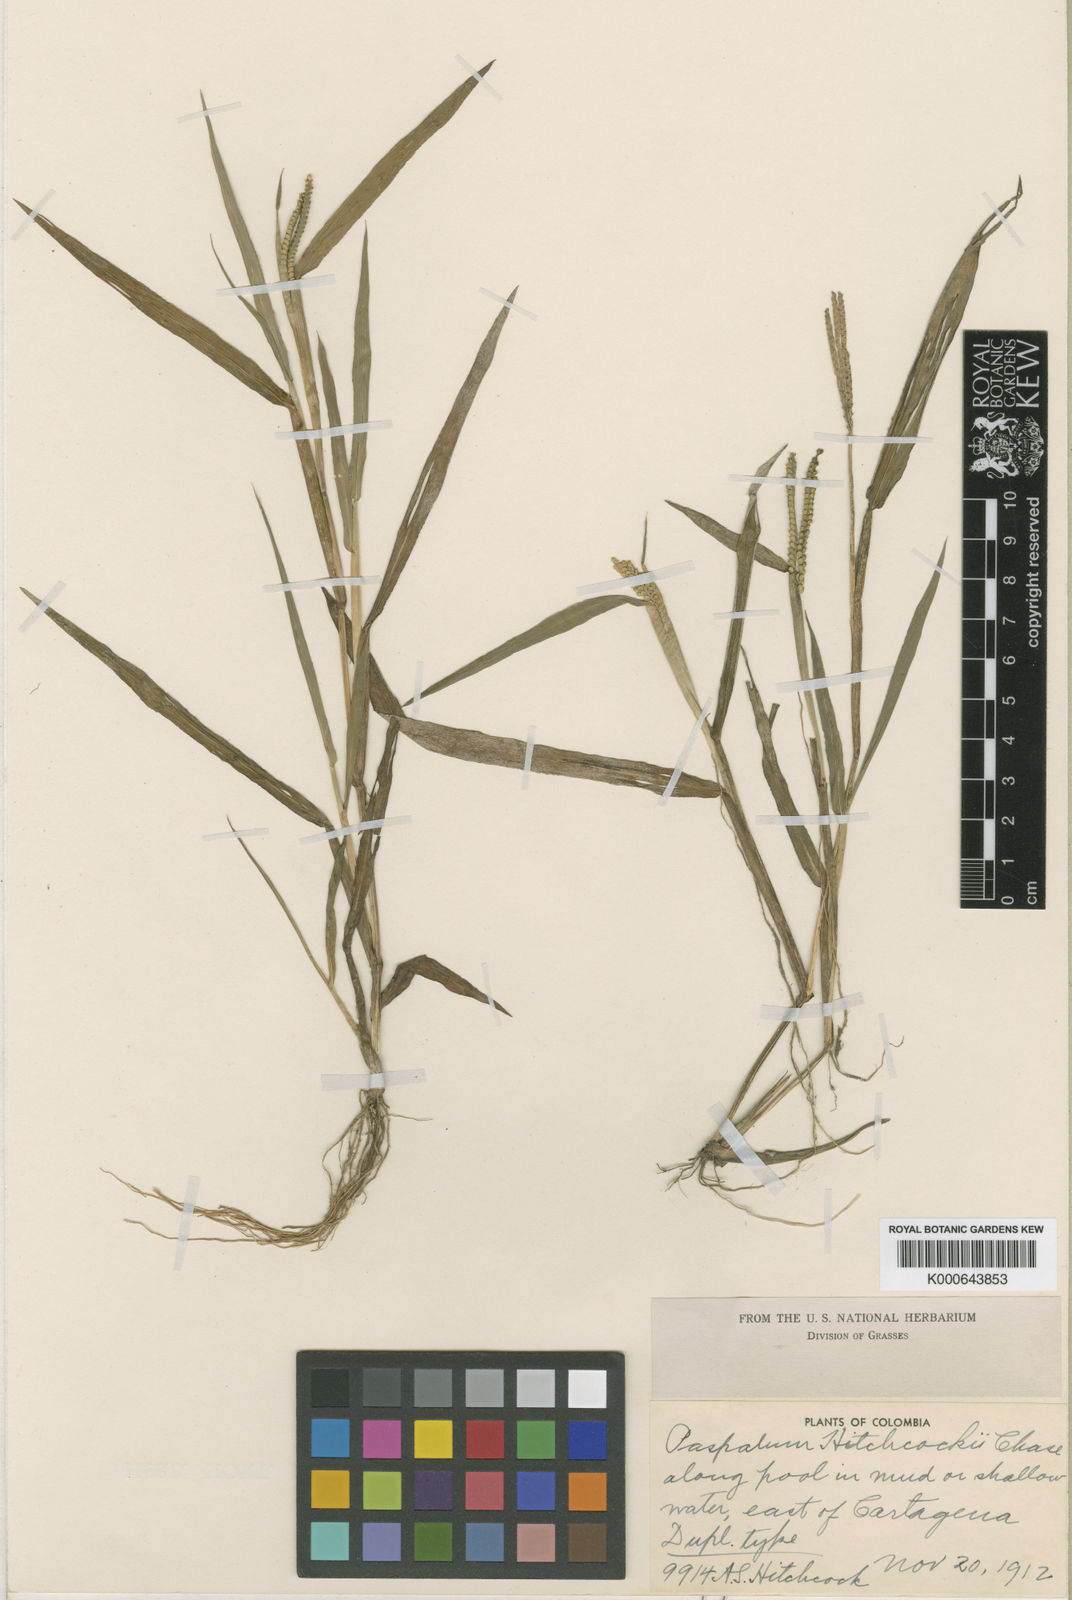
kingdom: Plantae
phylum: Tracheophyta
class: Liliopsida
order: Poales
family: Poaceae
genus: Paspalum
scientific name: Paspalum hitchcockii
